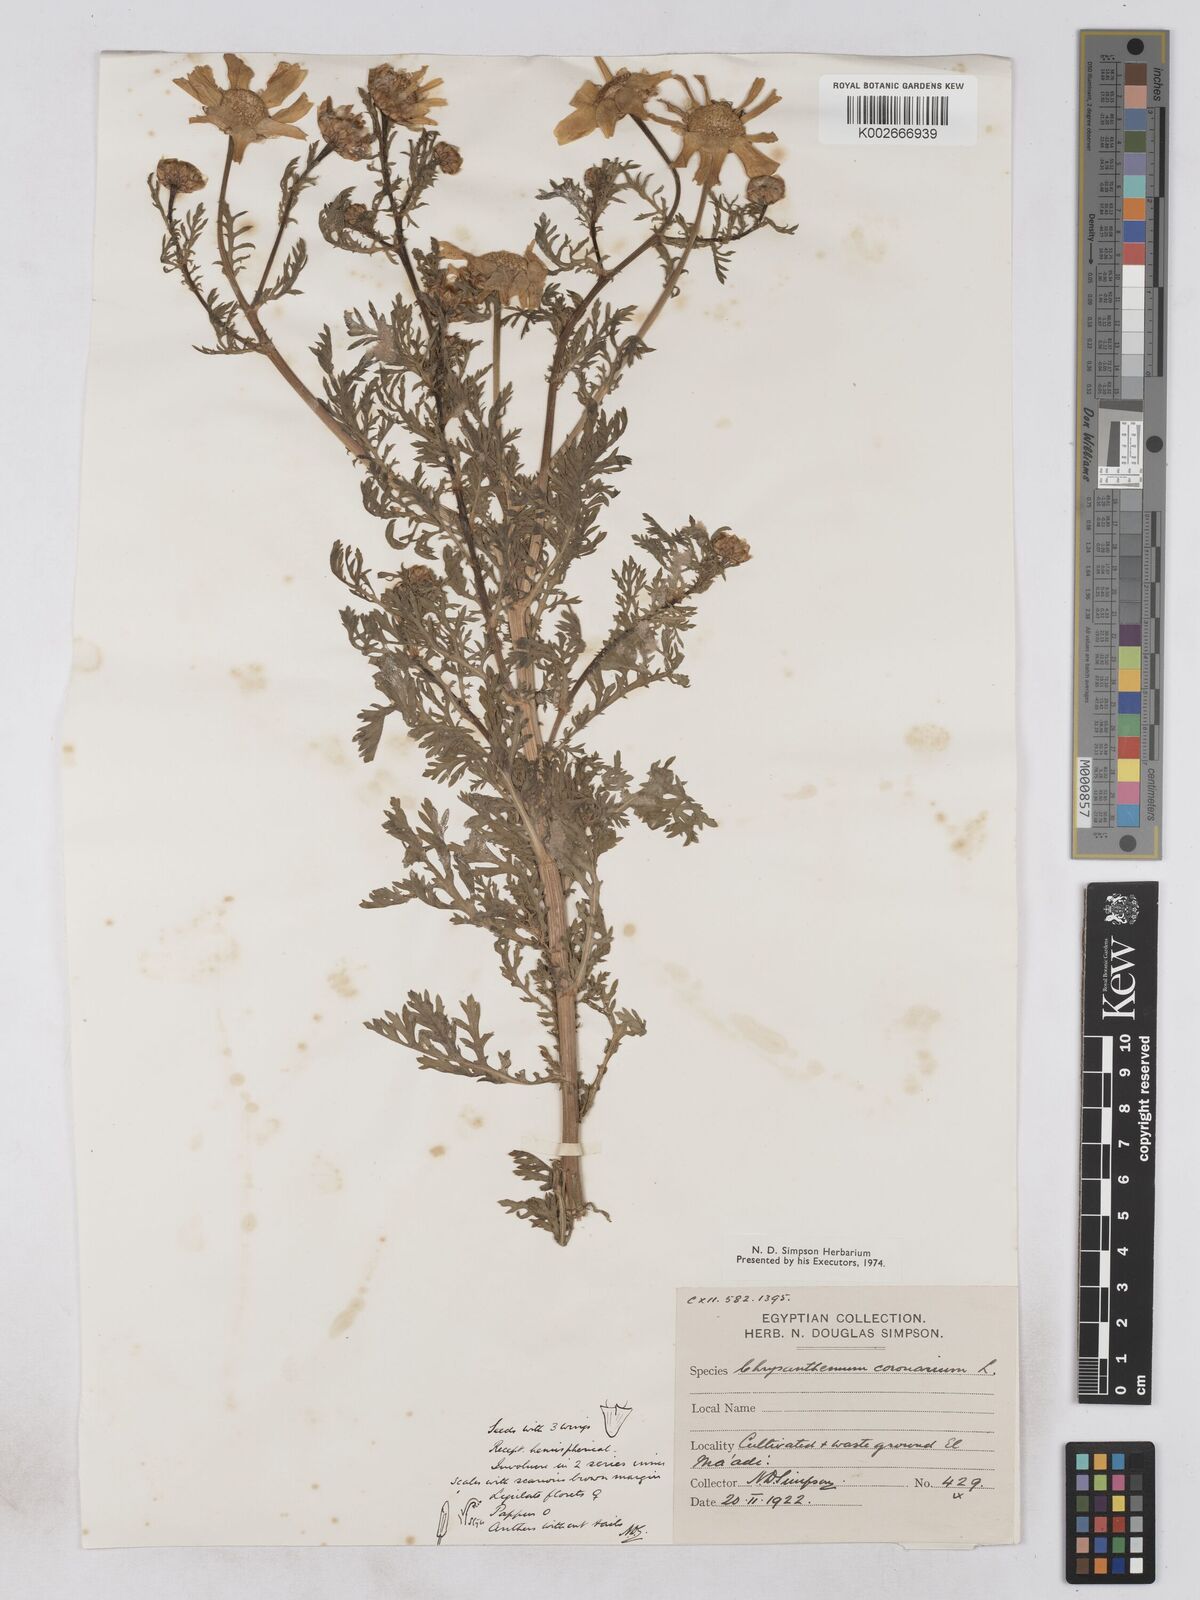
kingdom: Plantae
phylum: Tracheophyta
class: Magnoliopsida
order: Asterales
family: Asteraceae
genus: Glebionis
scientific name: Glebionis coronaria
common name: Crowndaisy
